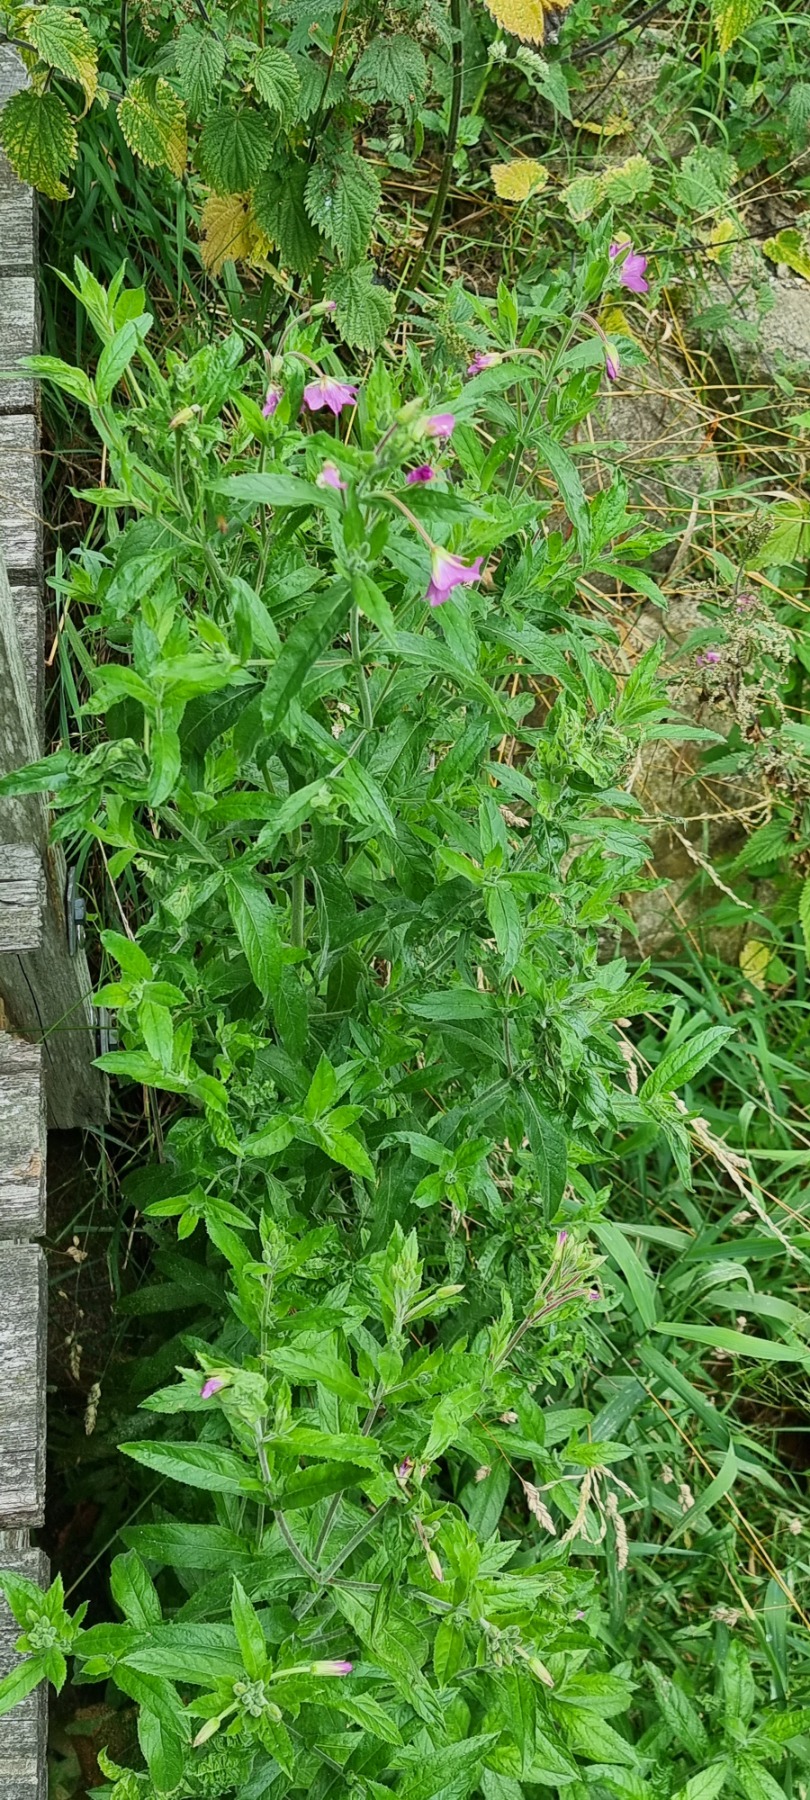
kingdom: Plantae
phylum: Tracheophyta
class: Magnoliopsida
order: Myrtales
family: Onagraceae
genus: Epilobium
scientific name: Epilobium hirsutum
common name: Lådden dueurt
